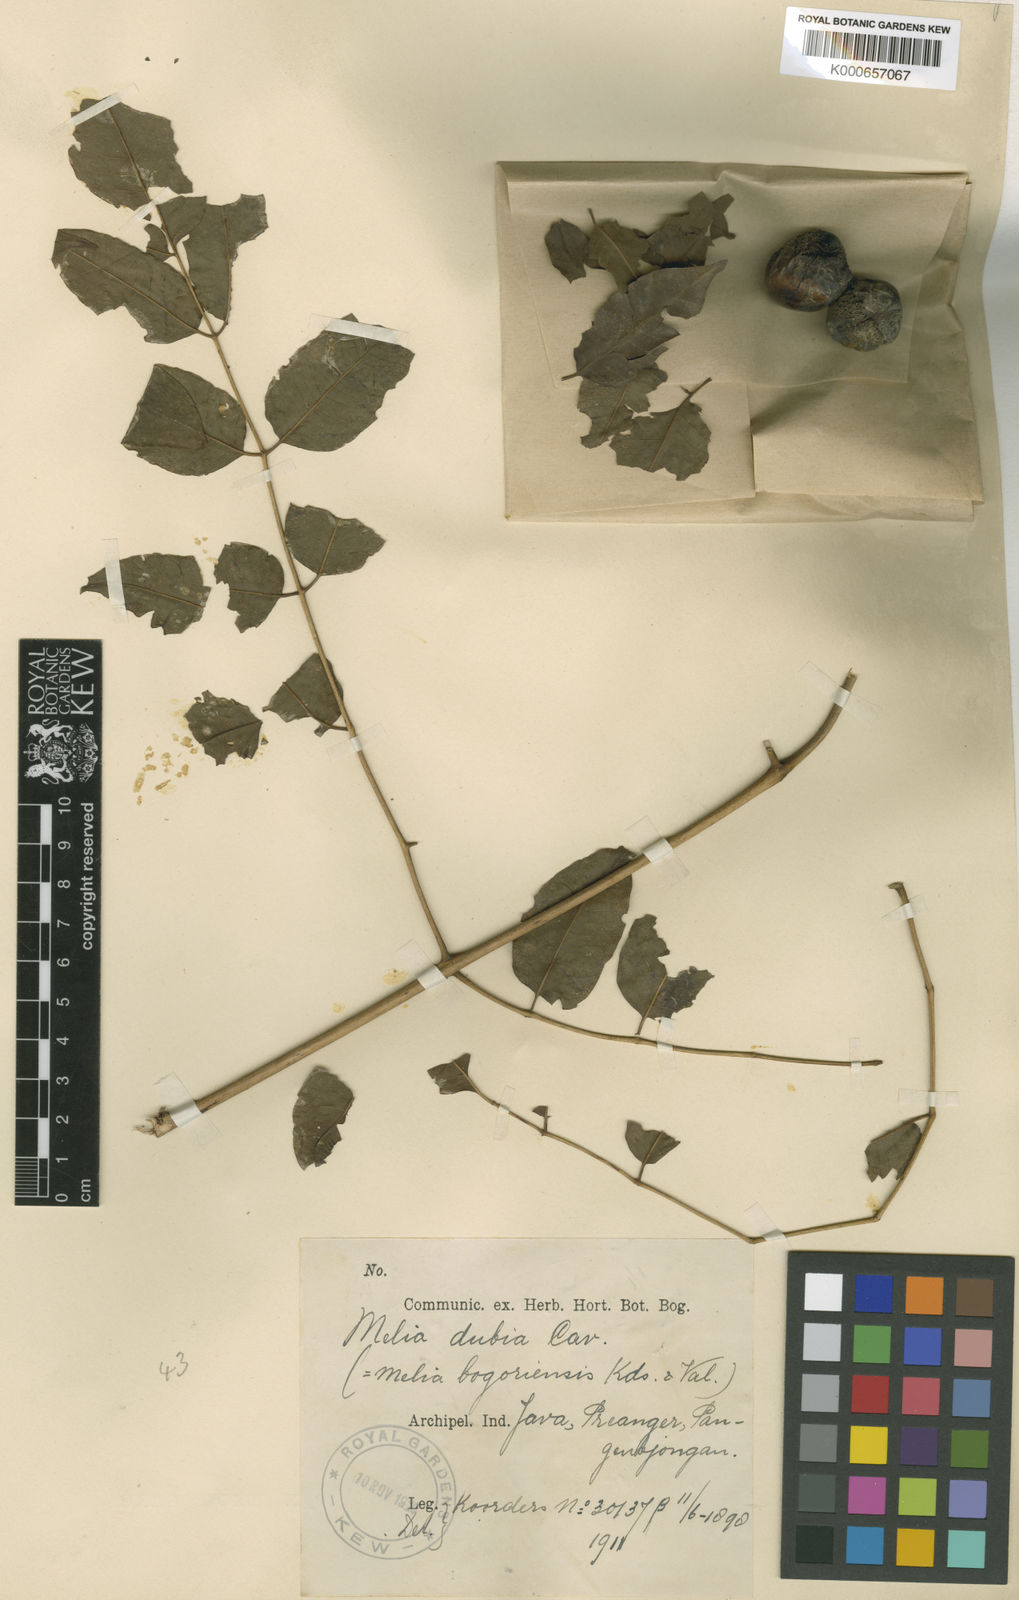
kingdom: Plantae
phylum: Tracheophyta
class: Magnoliopsida
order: Sapindales
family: Meliaceae
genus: Melia
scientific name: Melia azedarach
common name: Chinaberrytree
